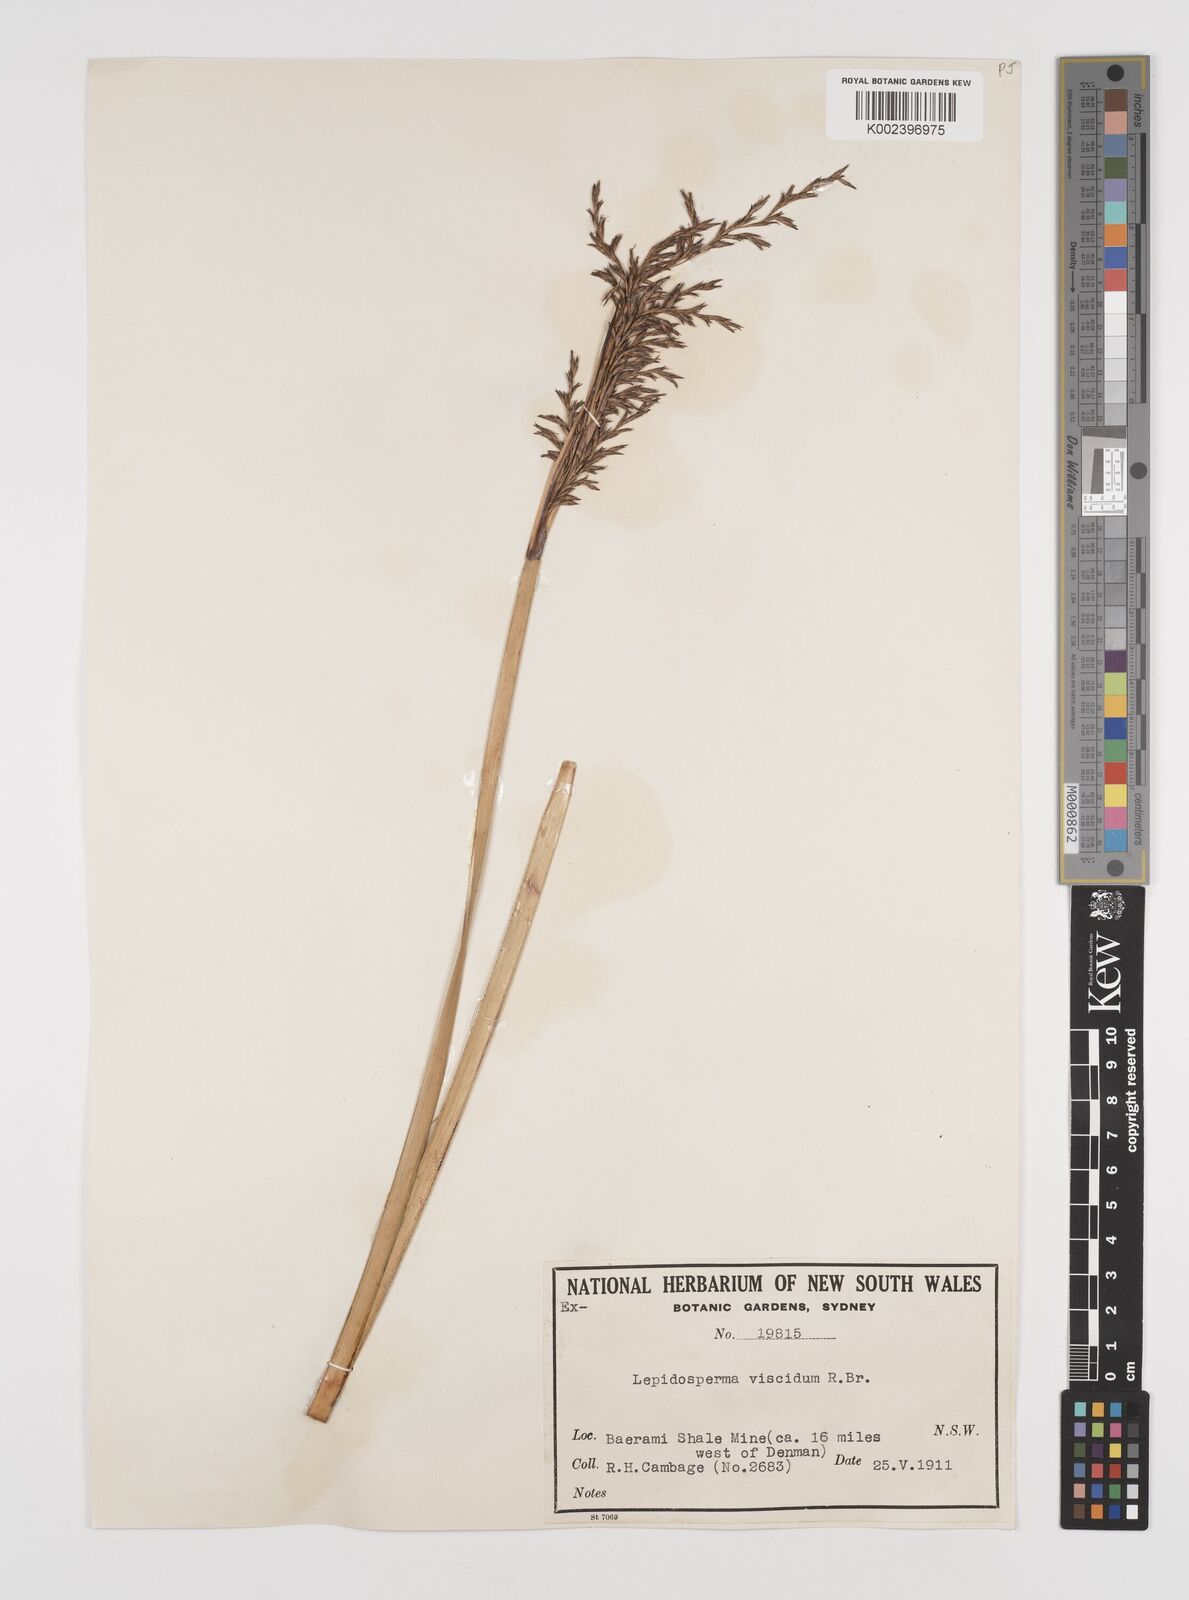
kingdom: Plantae
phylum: Tracheophyta
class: Liliopsida
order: Poales
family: Cyperaceae
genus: Lepidosperma
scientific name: Lepidosperma viscidum
